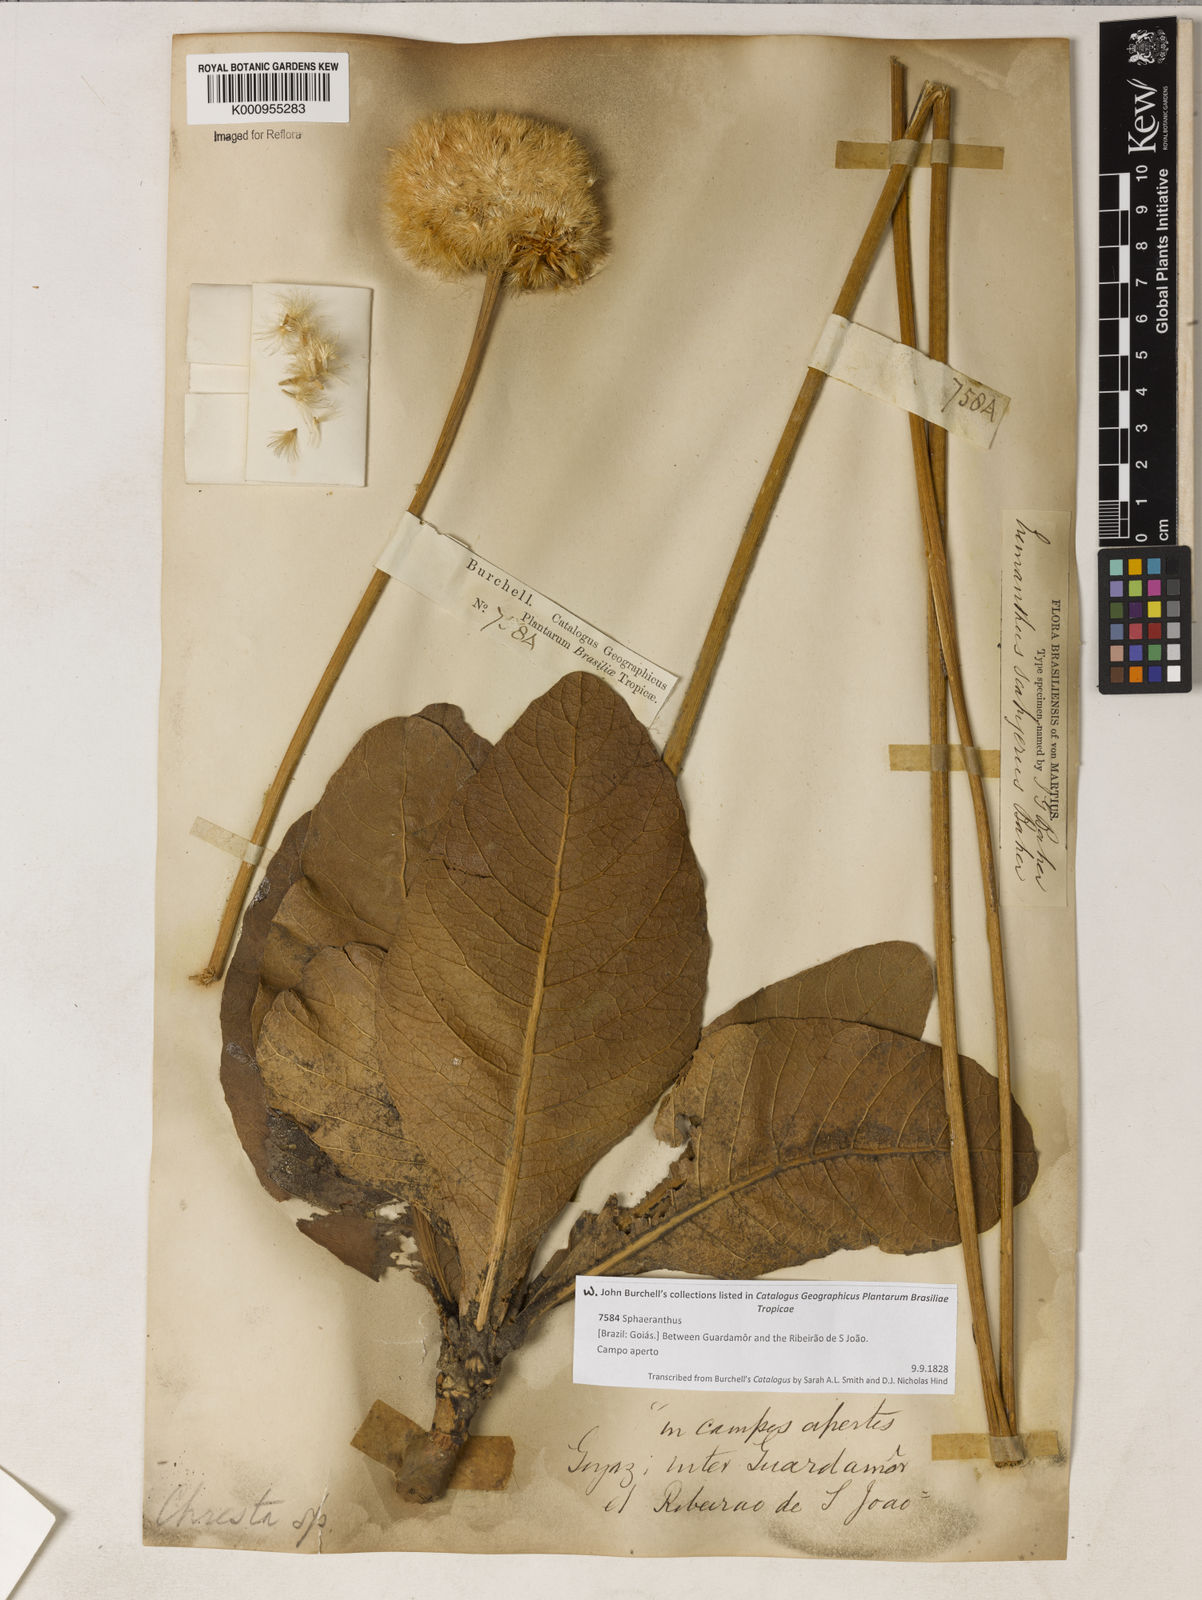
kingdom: Plantae
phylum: Tracheophyta
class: Magnoliopsida
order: Asterales
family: Asteraceae
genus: Chresta
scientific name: Chresta scapigera
